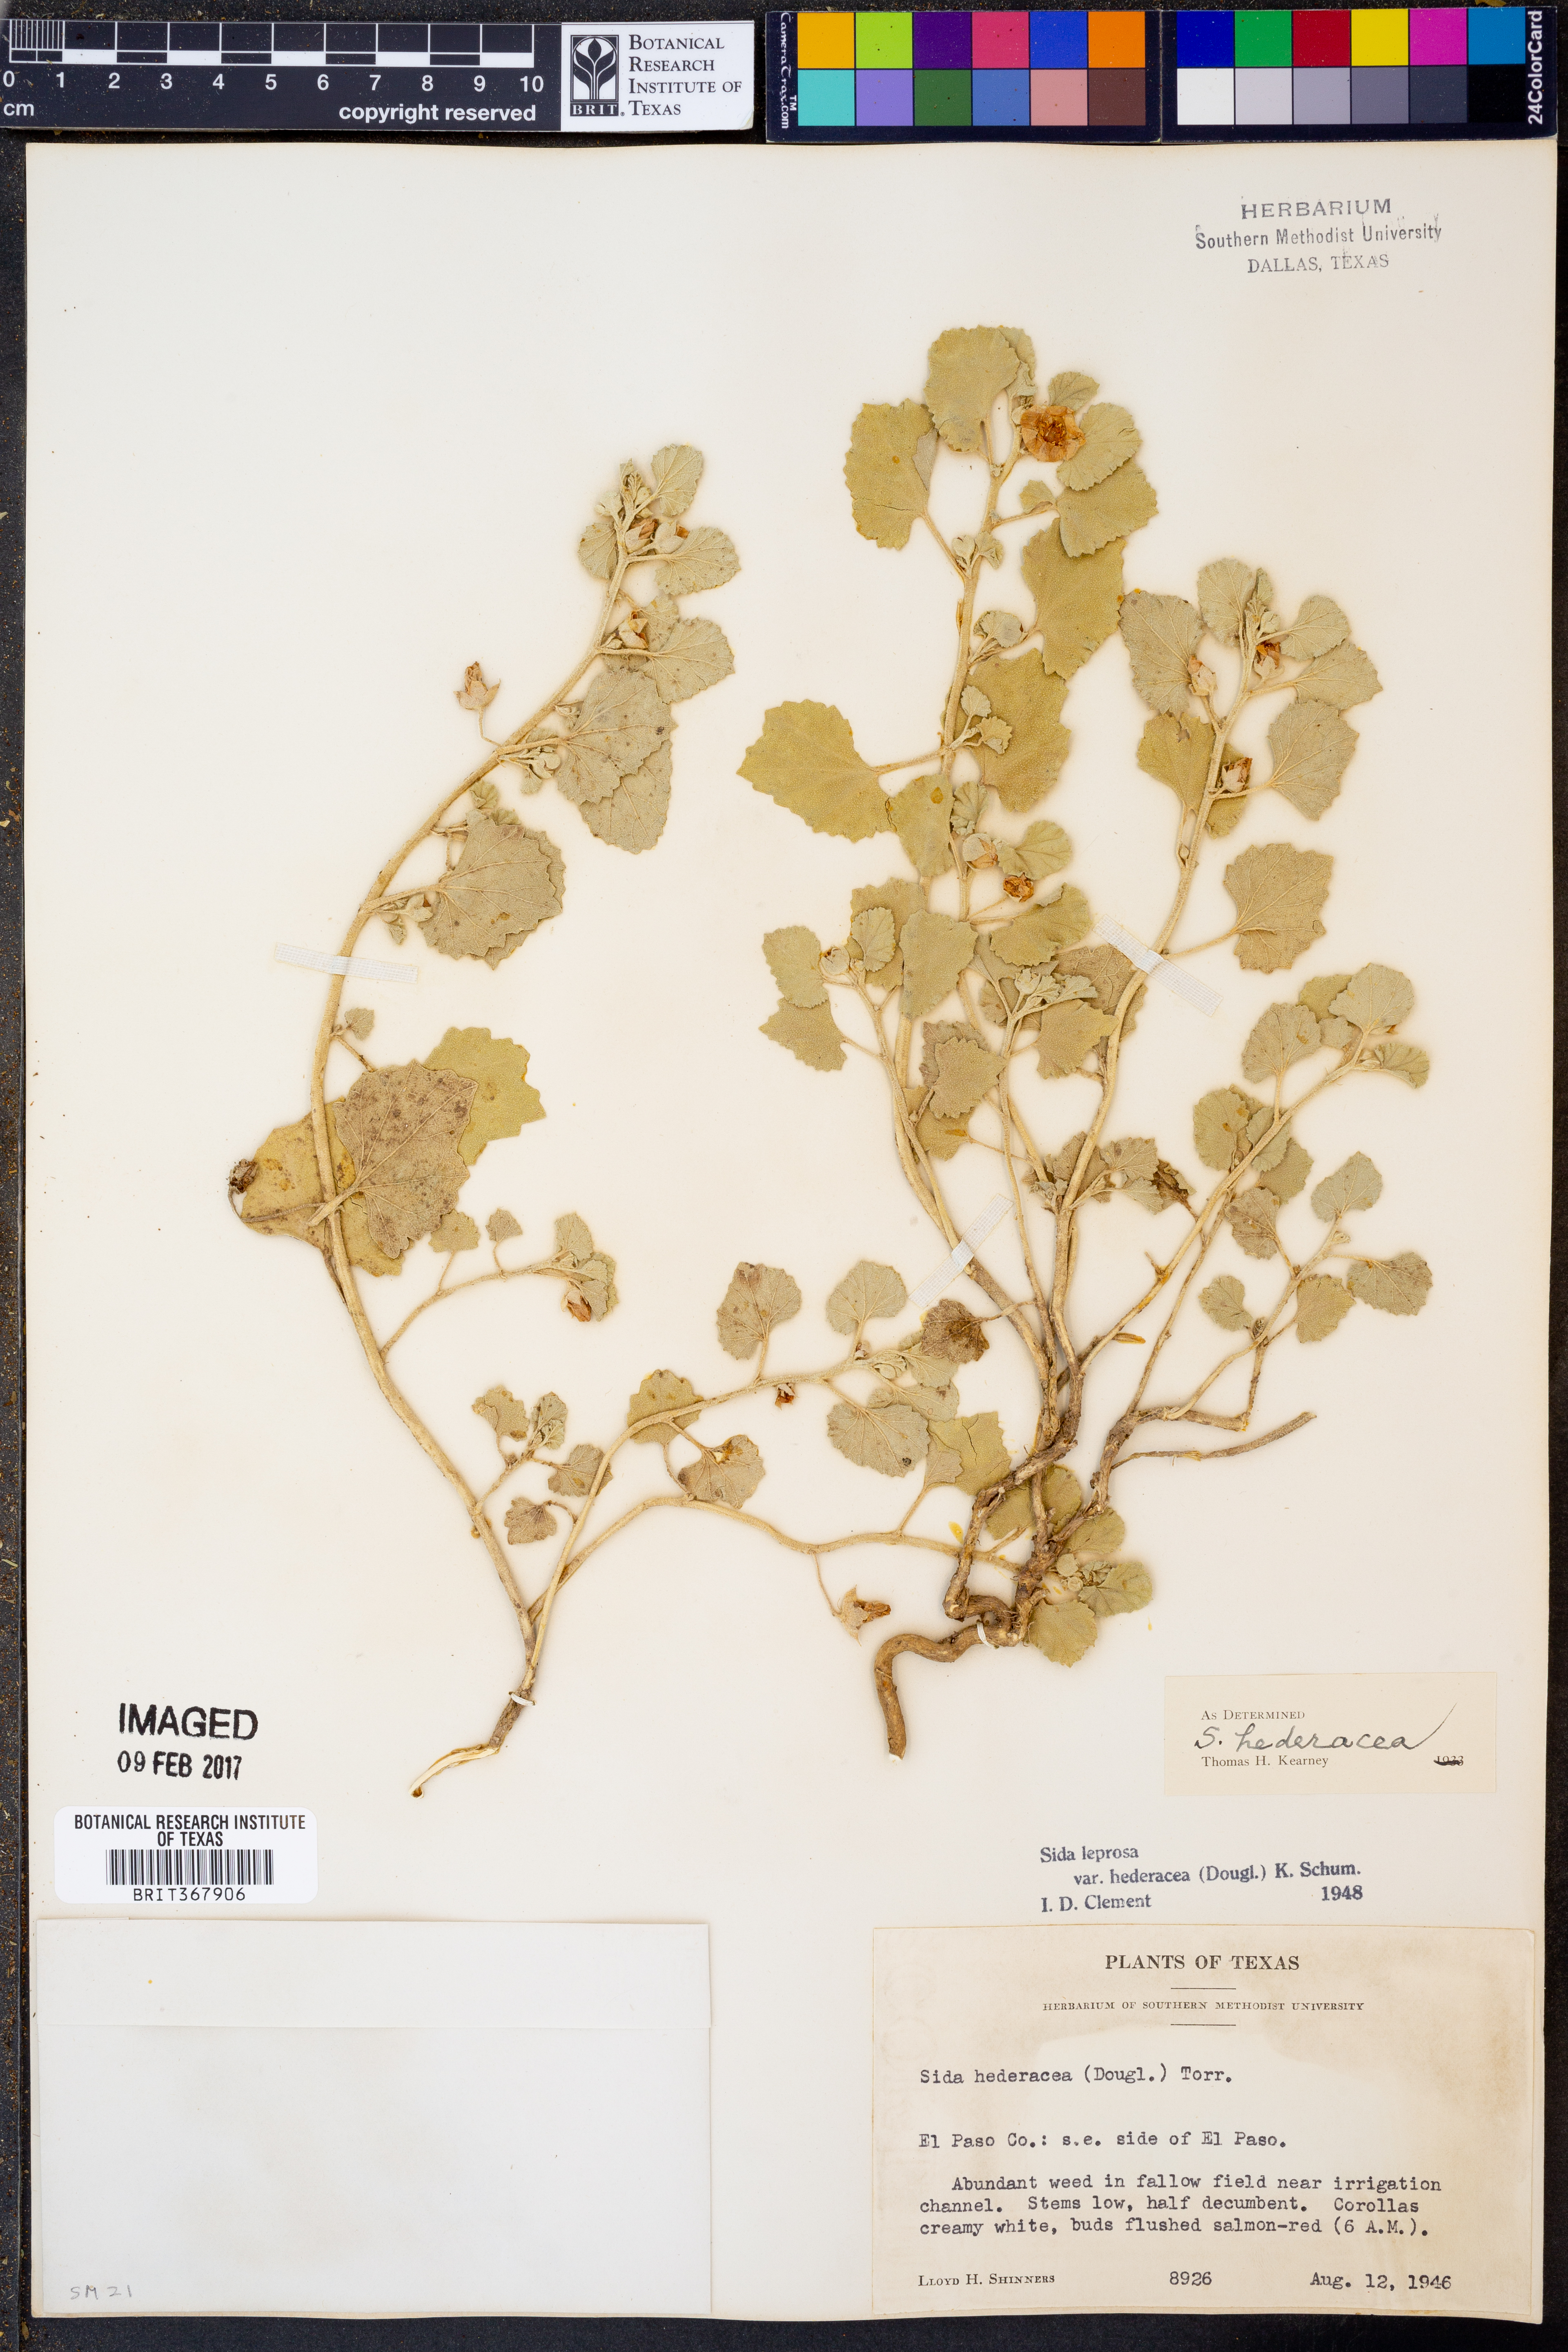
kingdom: Plantae
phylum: Tracheophyta
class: Magnoliopsida
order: Malvales
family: Malvaceae
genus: Malvella
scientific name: Malvella leprosa
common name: Alkali-mallow
